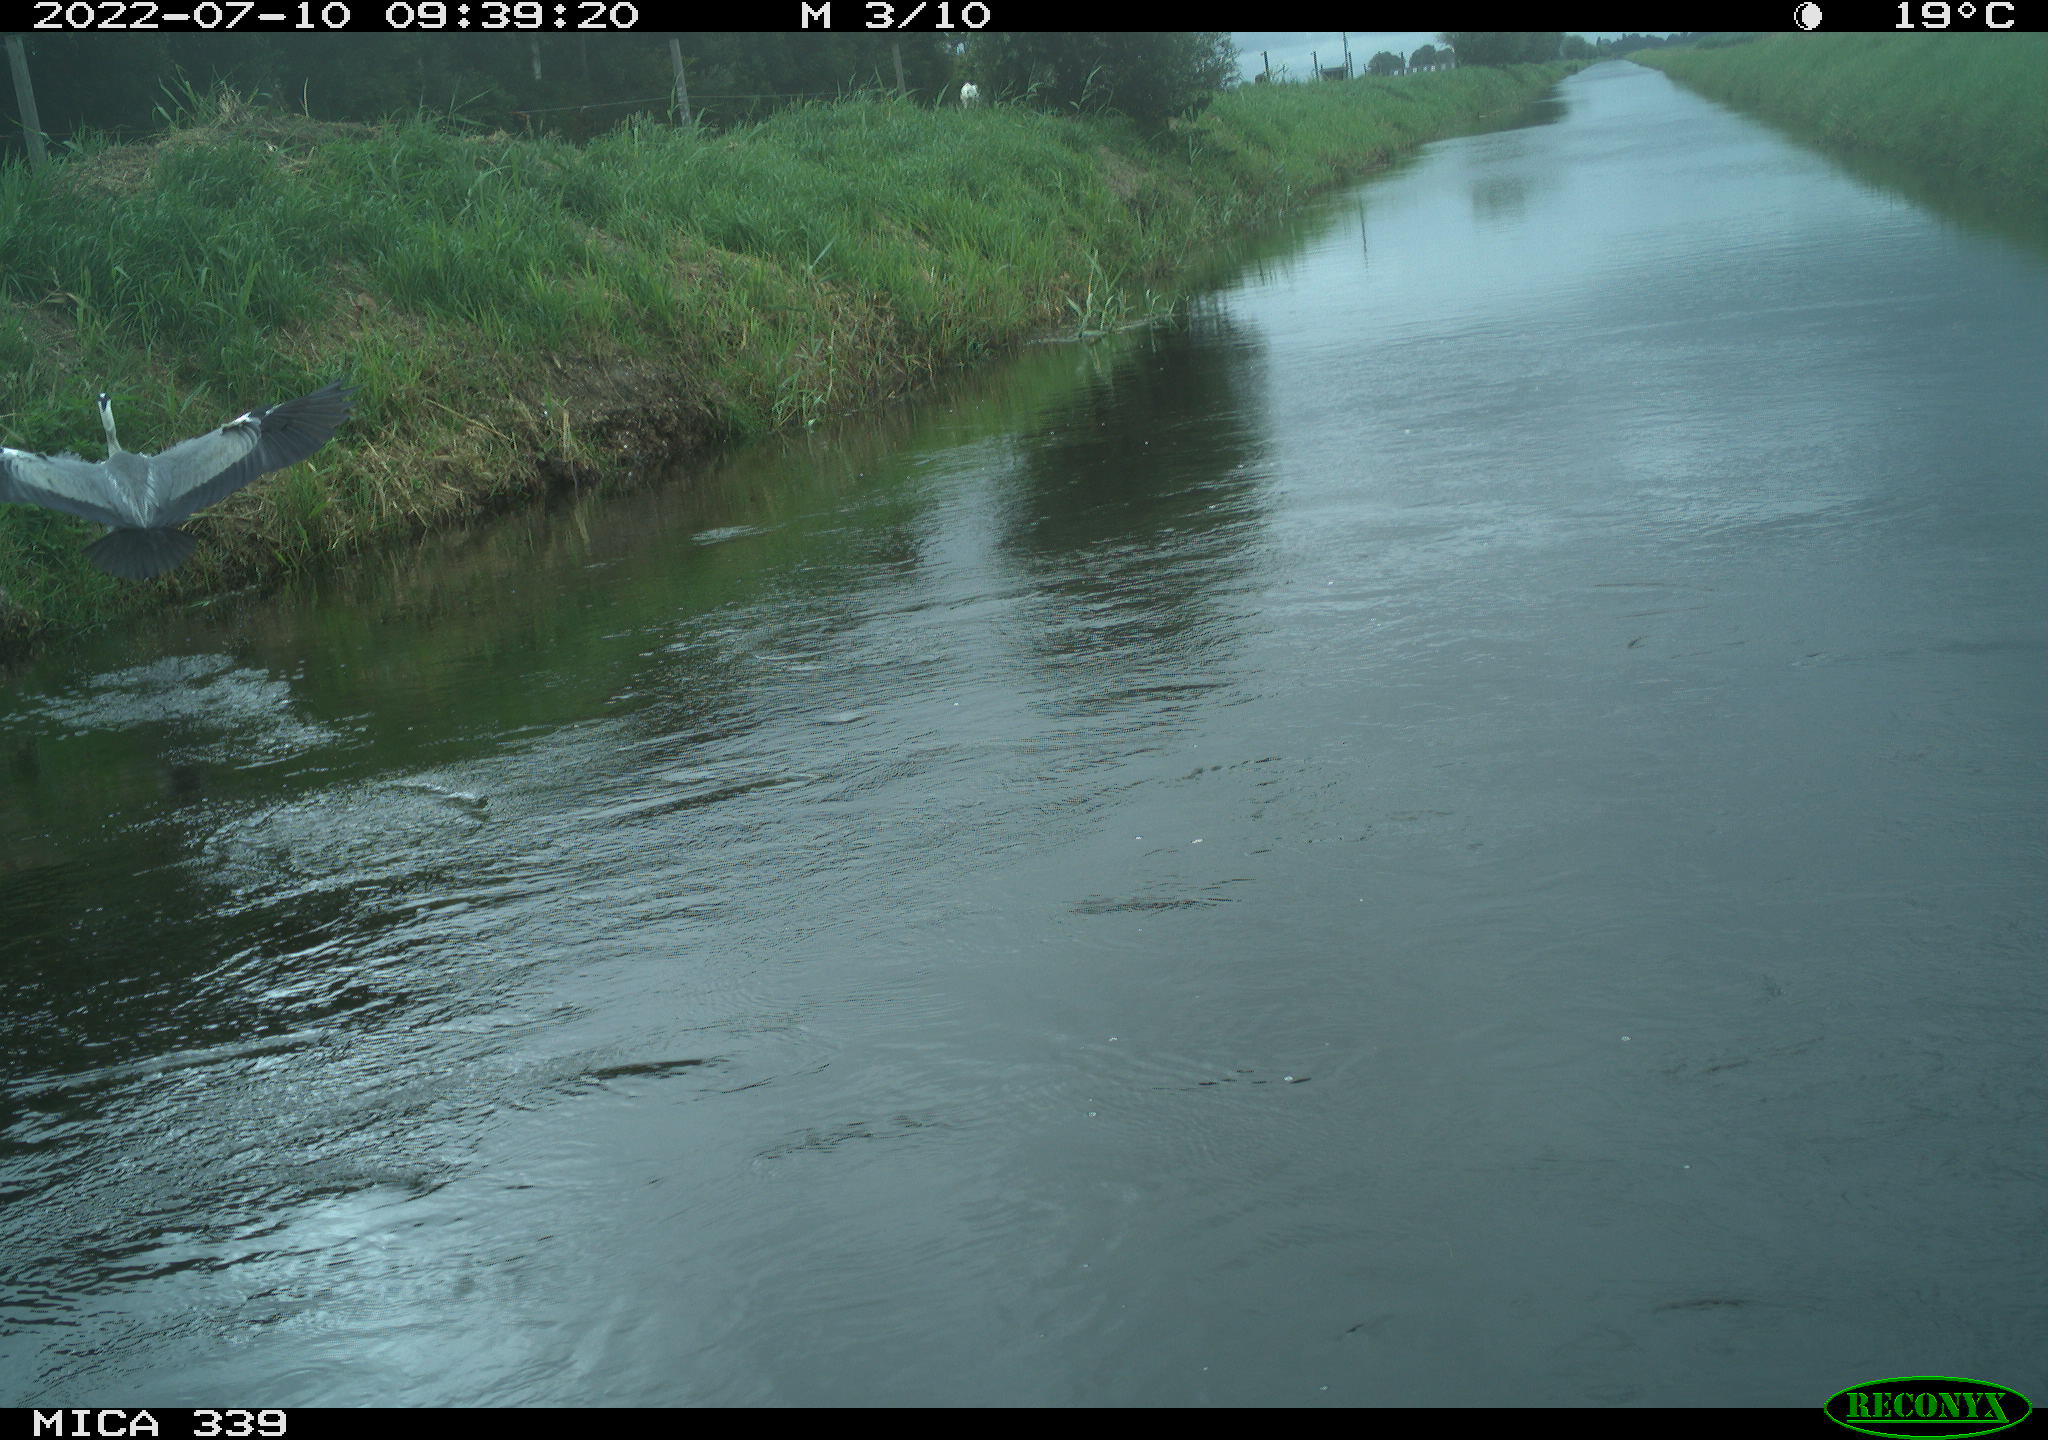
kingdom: Animalia
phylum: Chordata
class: Aves
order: Pelecaniformes
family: Ardeidae
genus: Ardea
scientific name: Ardea
